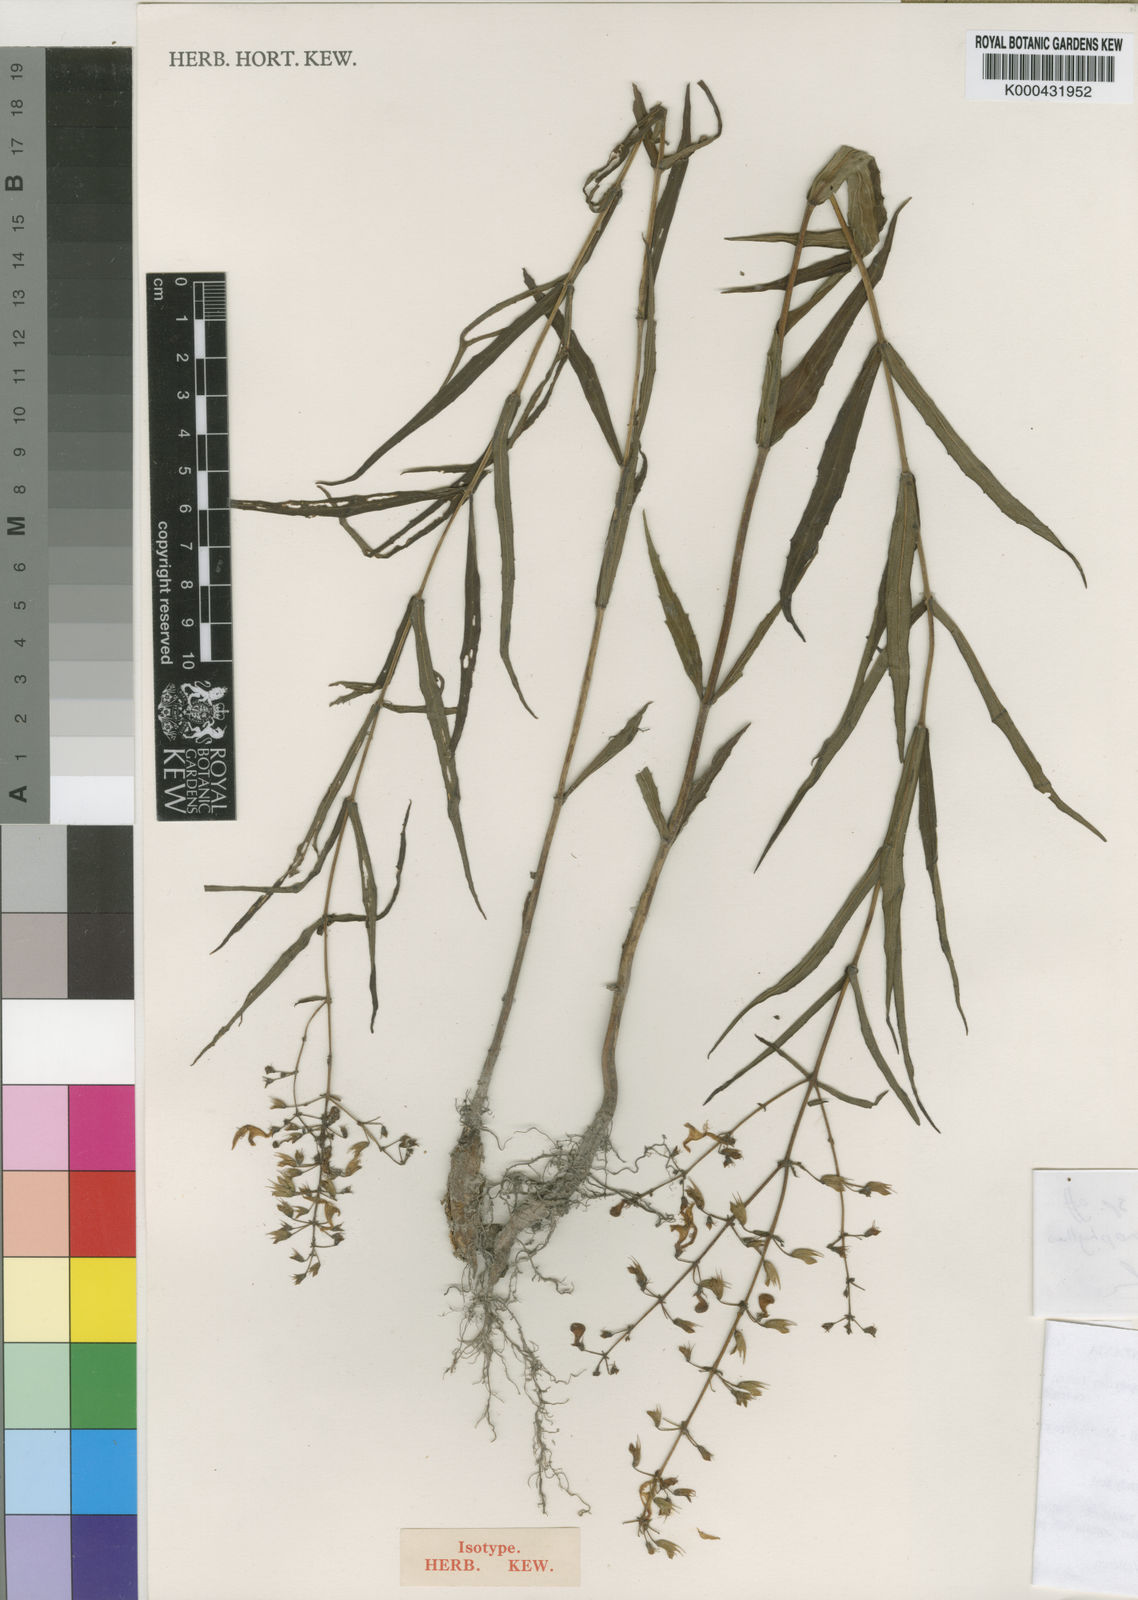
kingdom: Plantae
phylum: Tracheophyta
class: Magnoliopsida
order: Lamiales
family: Lamiaceae
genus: Coleus
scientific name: Coleus sallyae
